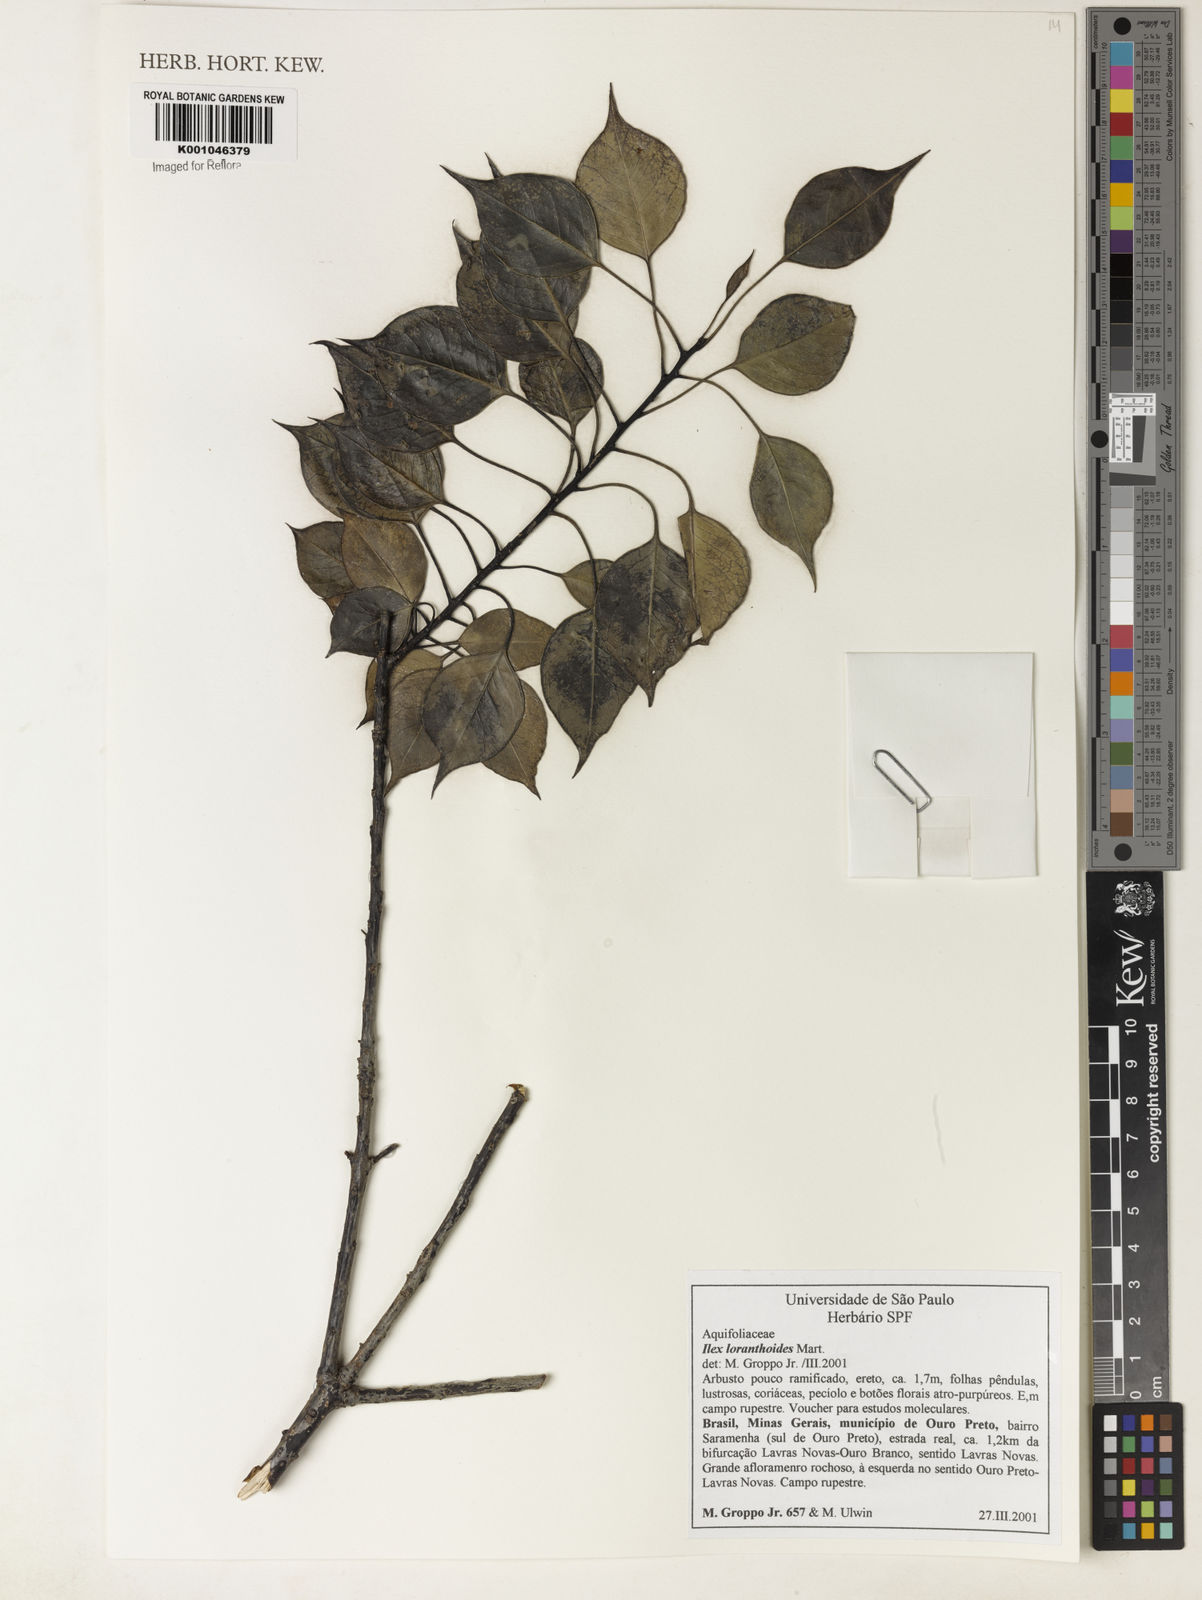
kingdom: Plantae
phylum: Tracheophyta
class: Magnoliopsida
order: Aquifoliales
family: Aquifoliaceae
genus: Ilex
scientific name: Ilex loranthoides
